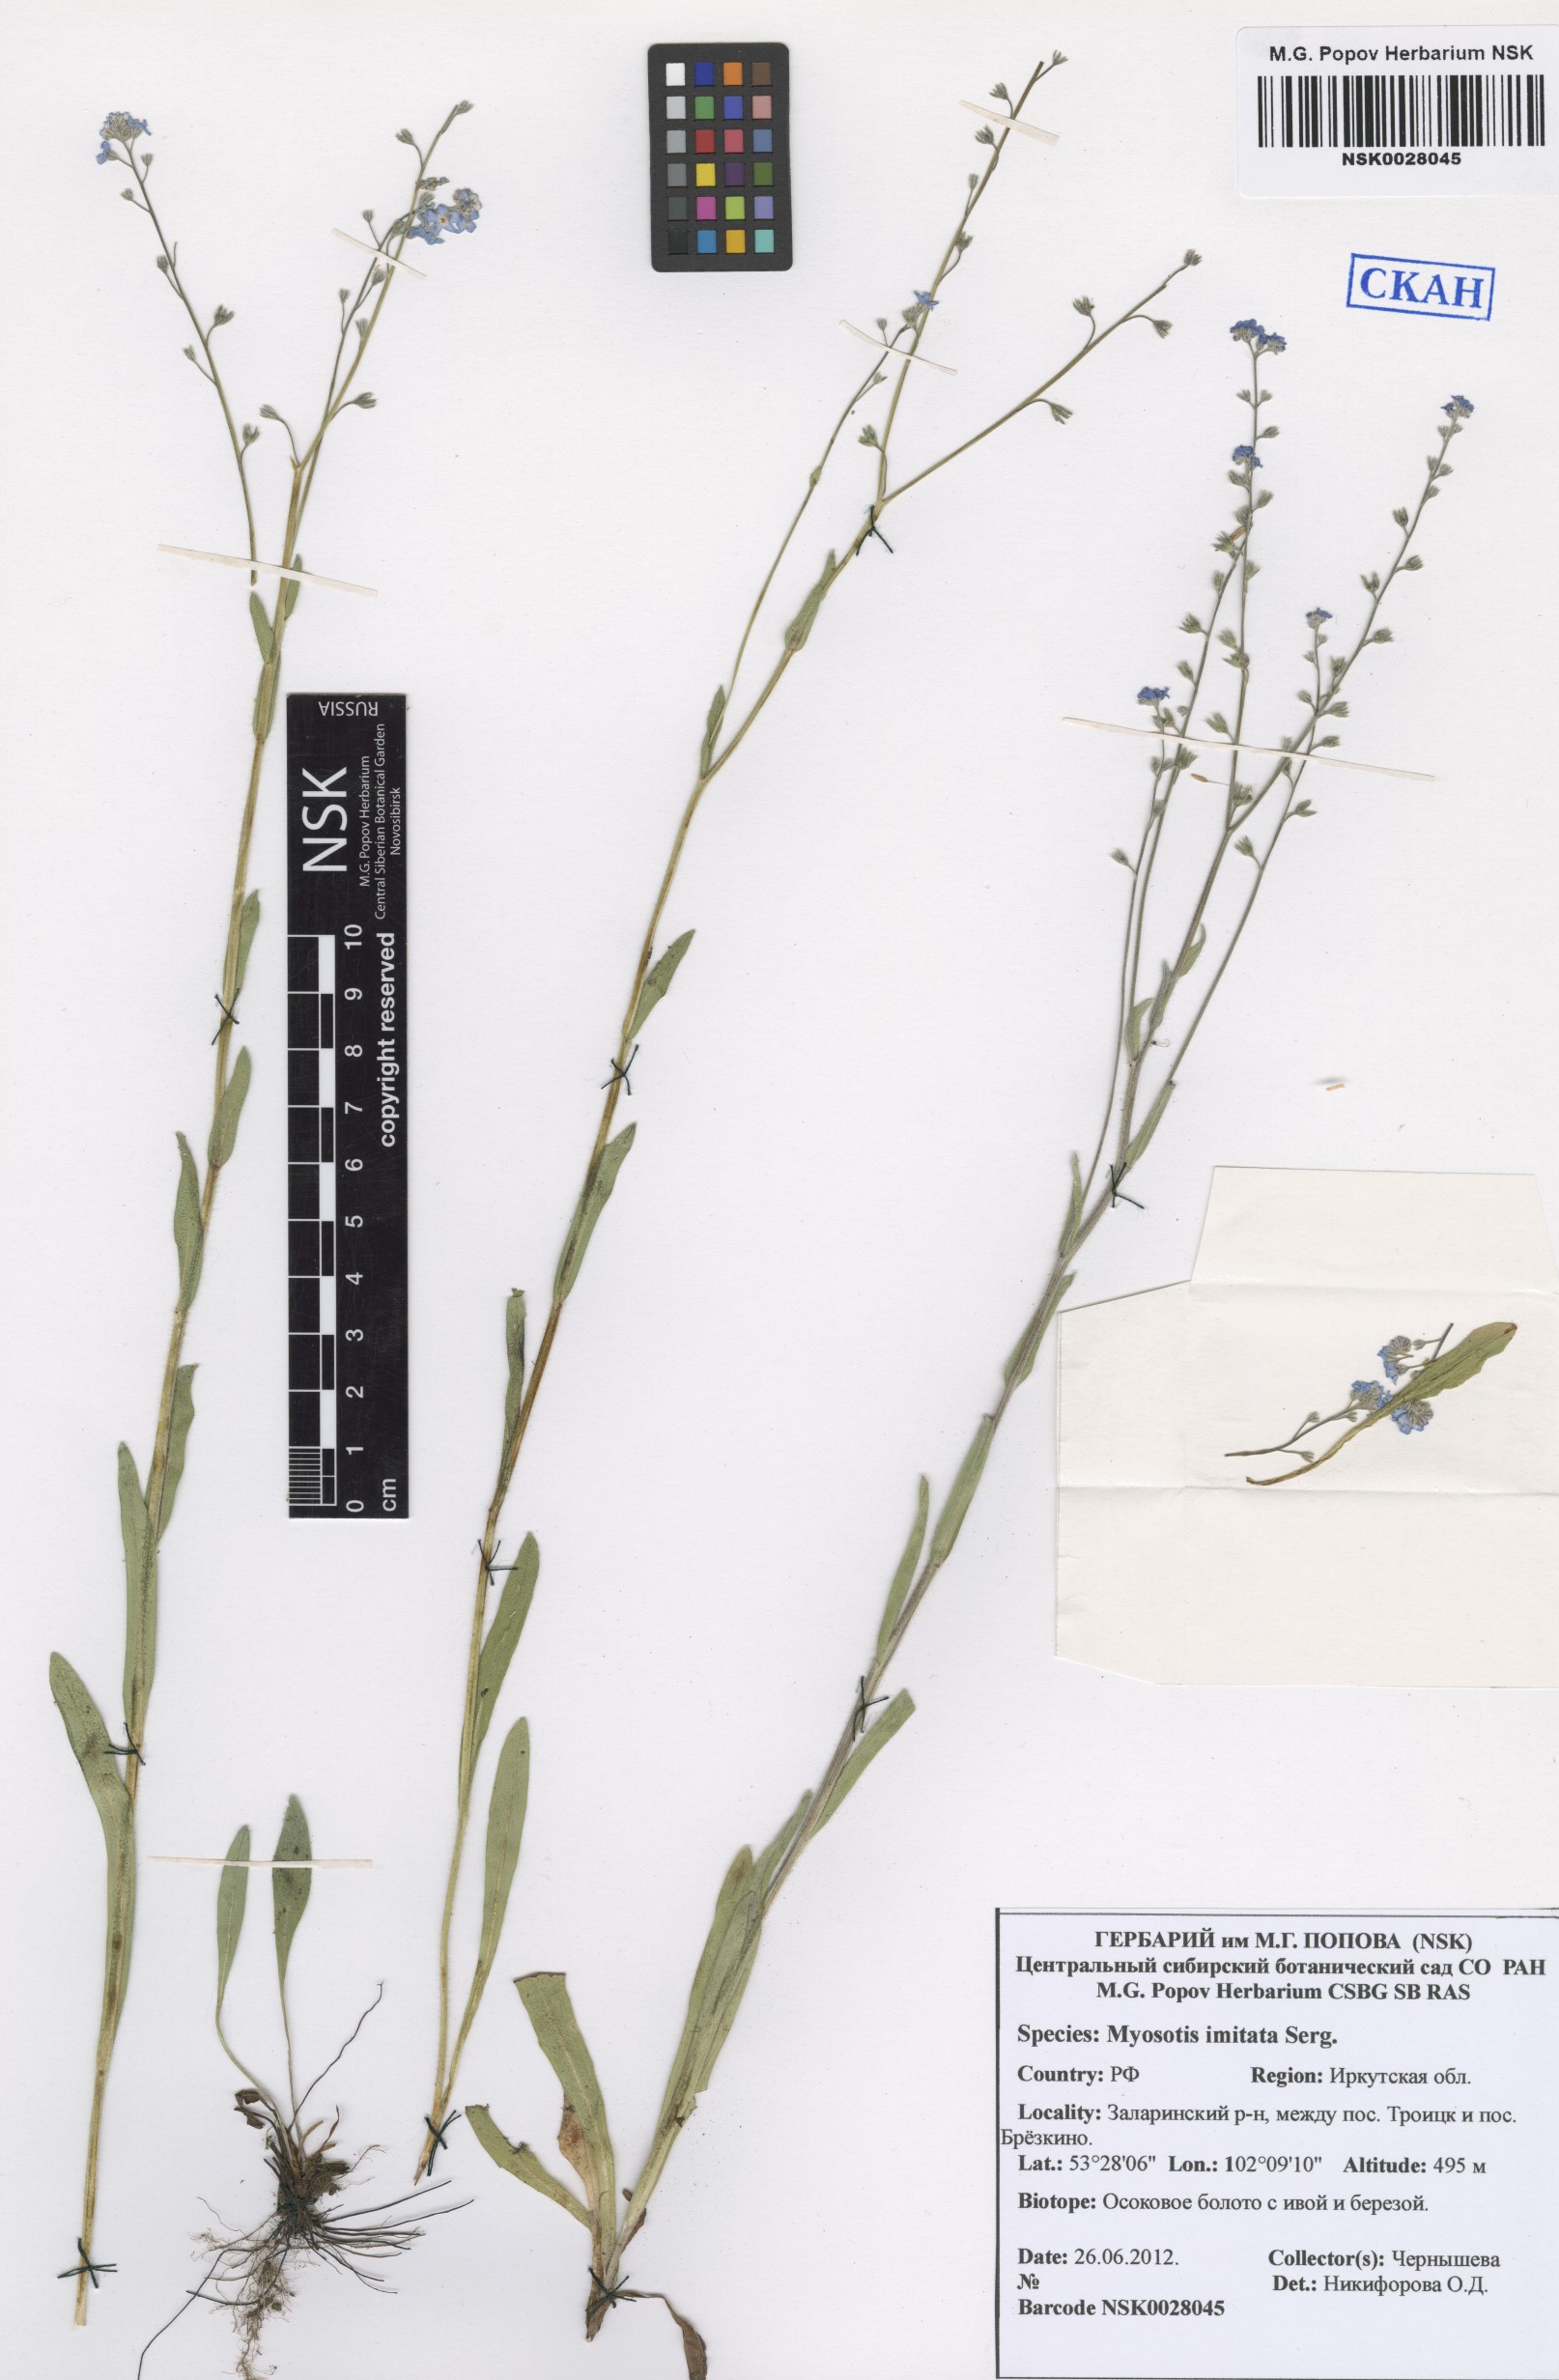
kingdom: Plantae
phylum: Tracheophyta
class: Magnoliopsida
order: Boraginales
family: Boraginaceae
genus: Myosotis
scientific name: Myosotis imitata
